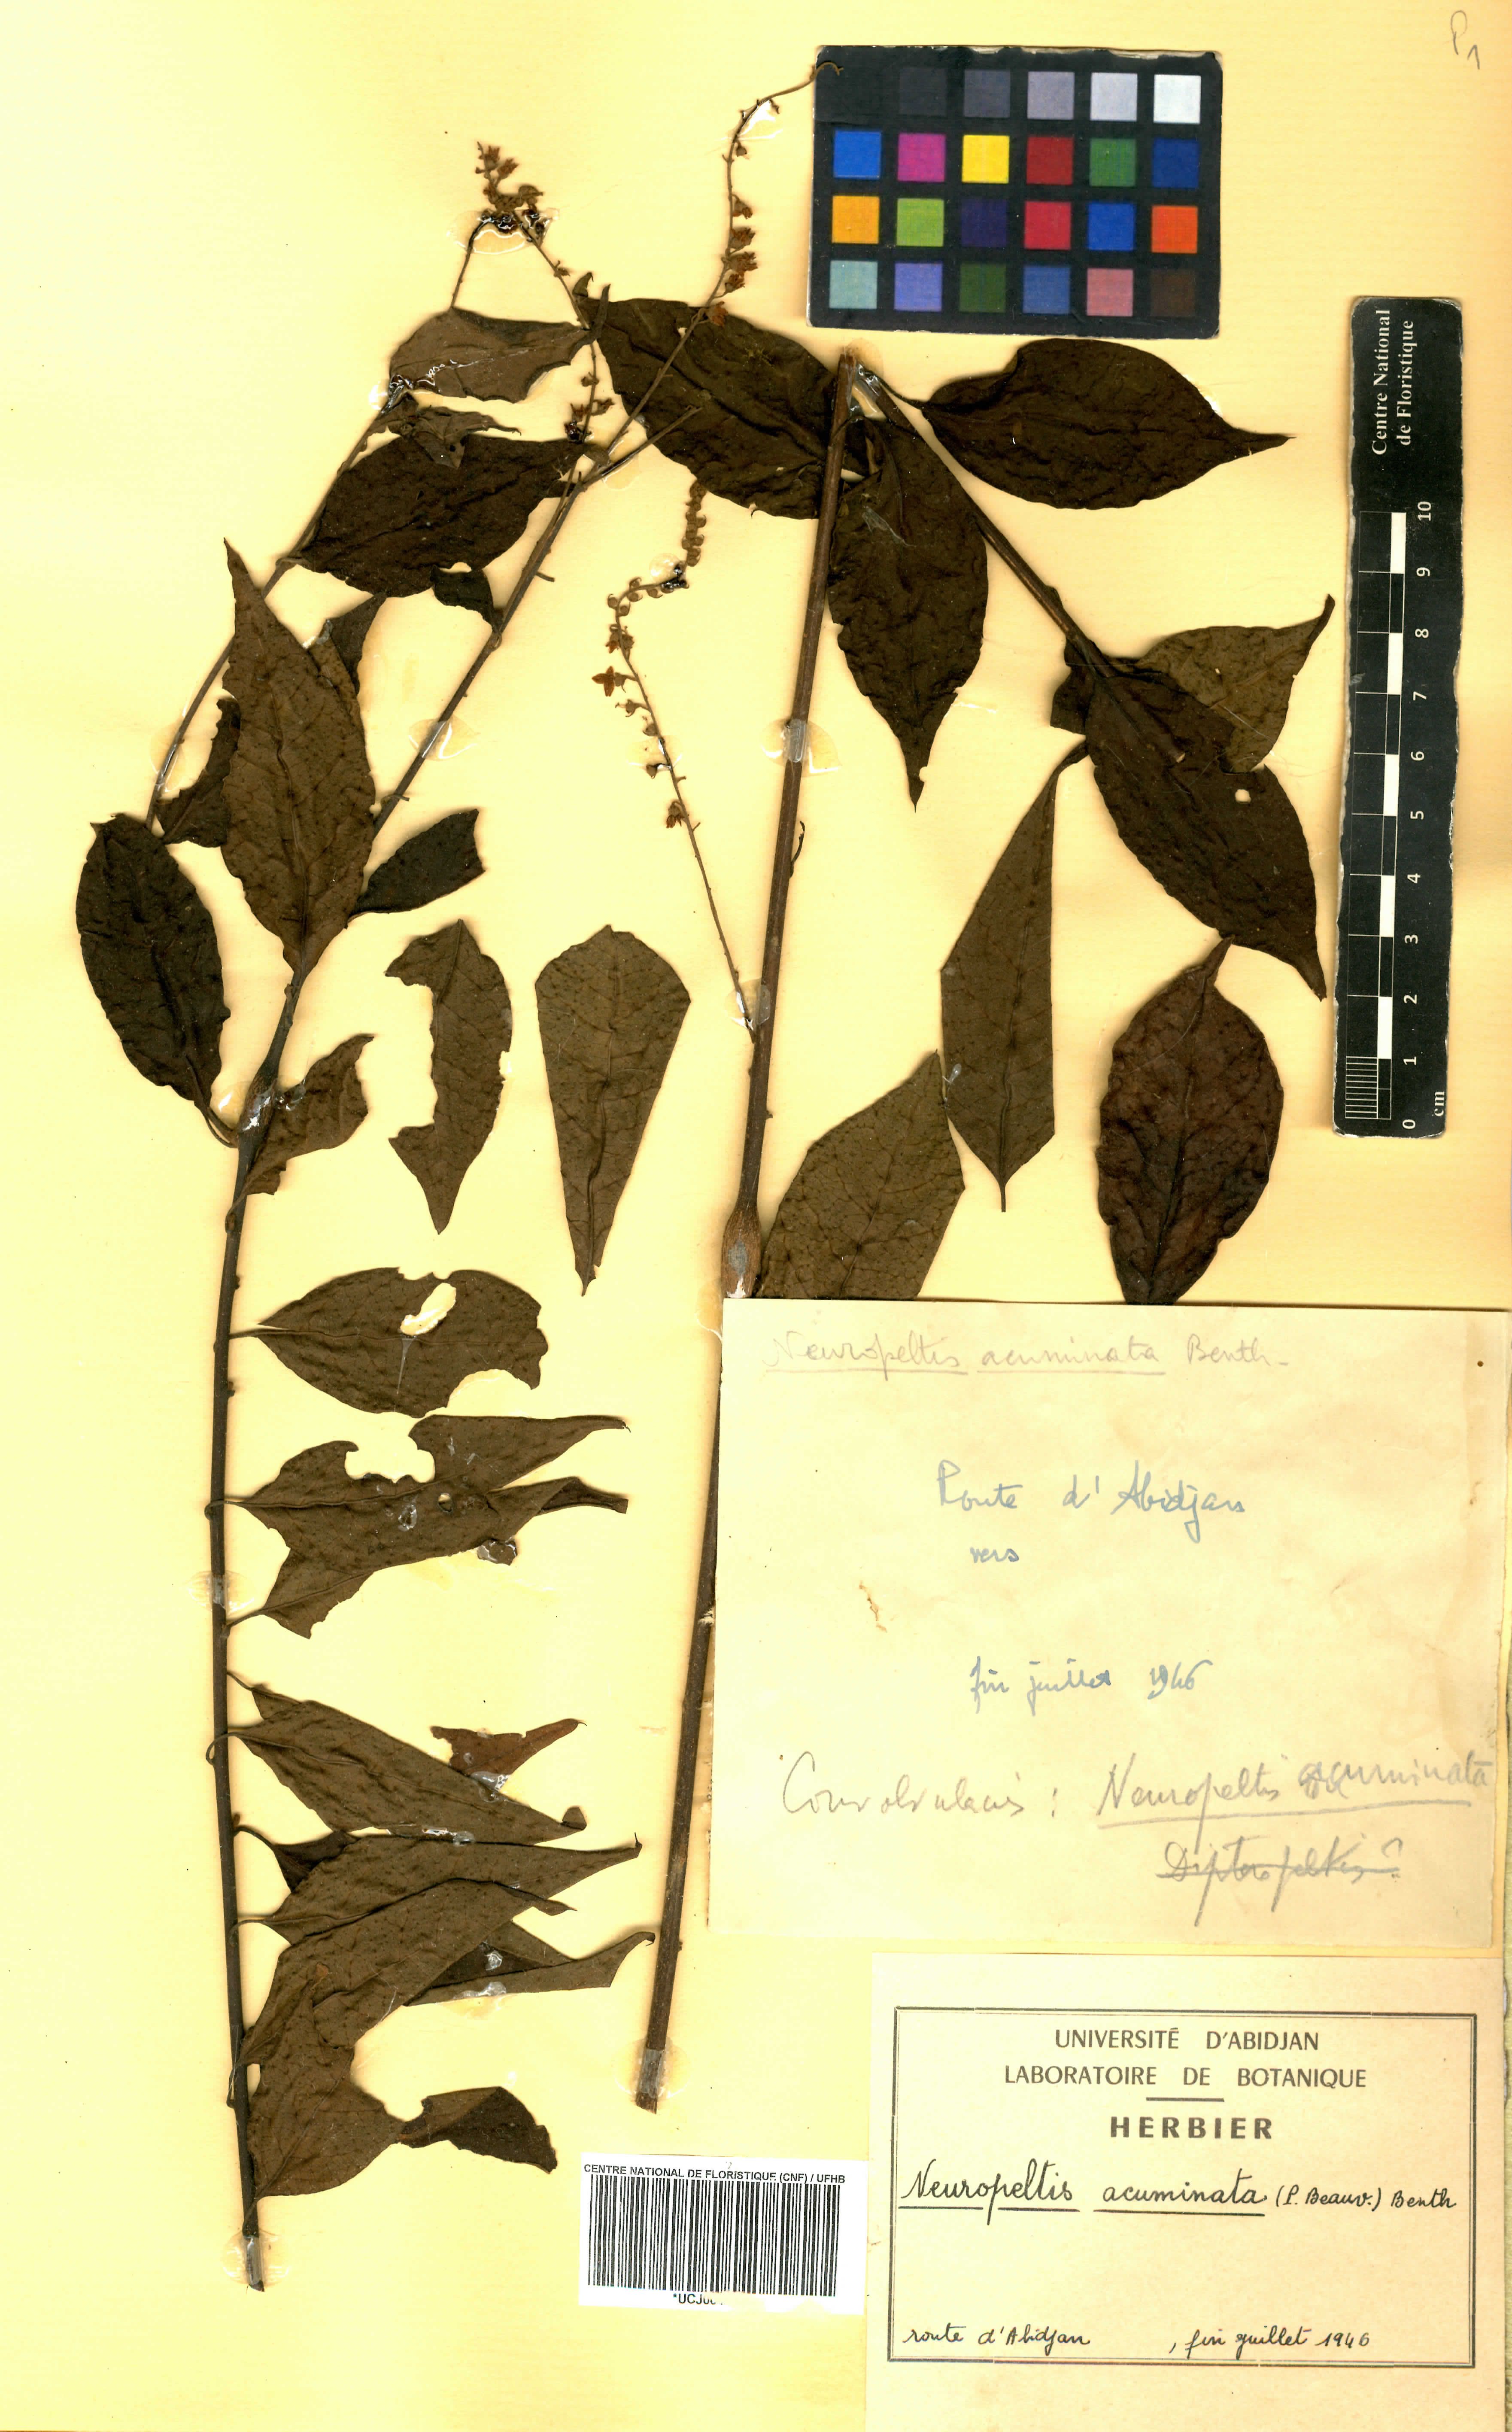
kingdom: Plantae
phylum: Tracheophyta
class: Magnoliopsida
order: Solanales
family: Convolvulaceae
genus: Neuropeltis
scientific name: Neuropeltis acuminata
